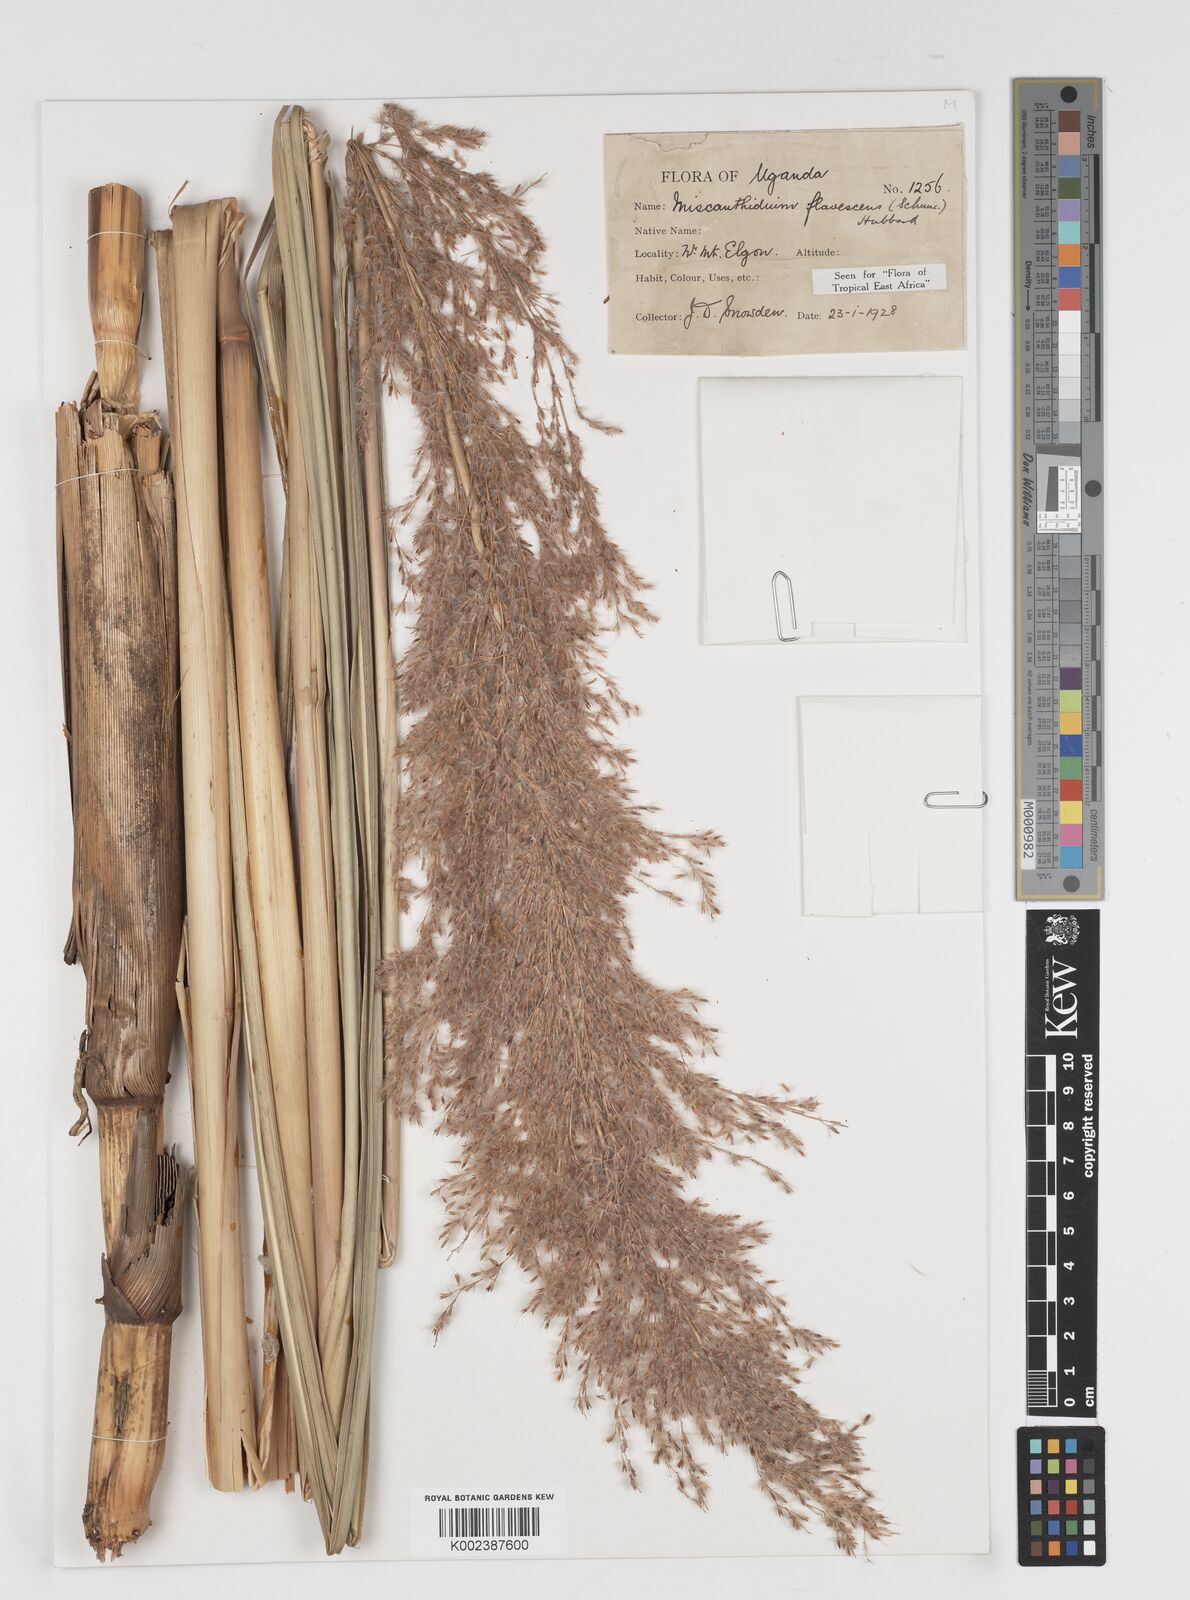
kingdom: Plantae
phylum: Tracheophyta
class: Liliopsida
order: Poales
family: Poaceae
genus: Miscanthidium
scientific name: Miscanthidium violaceum
